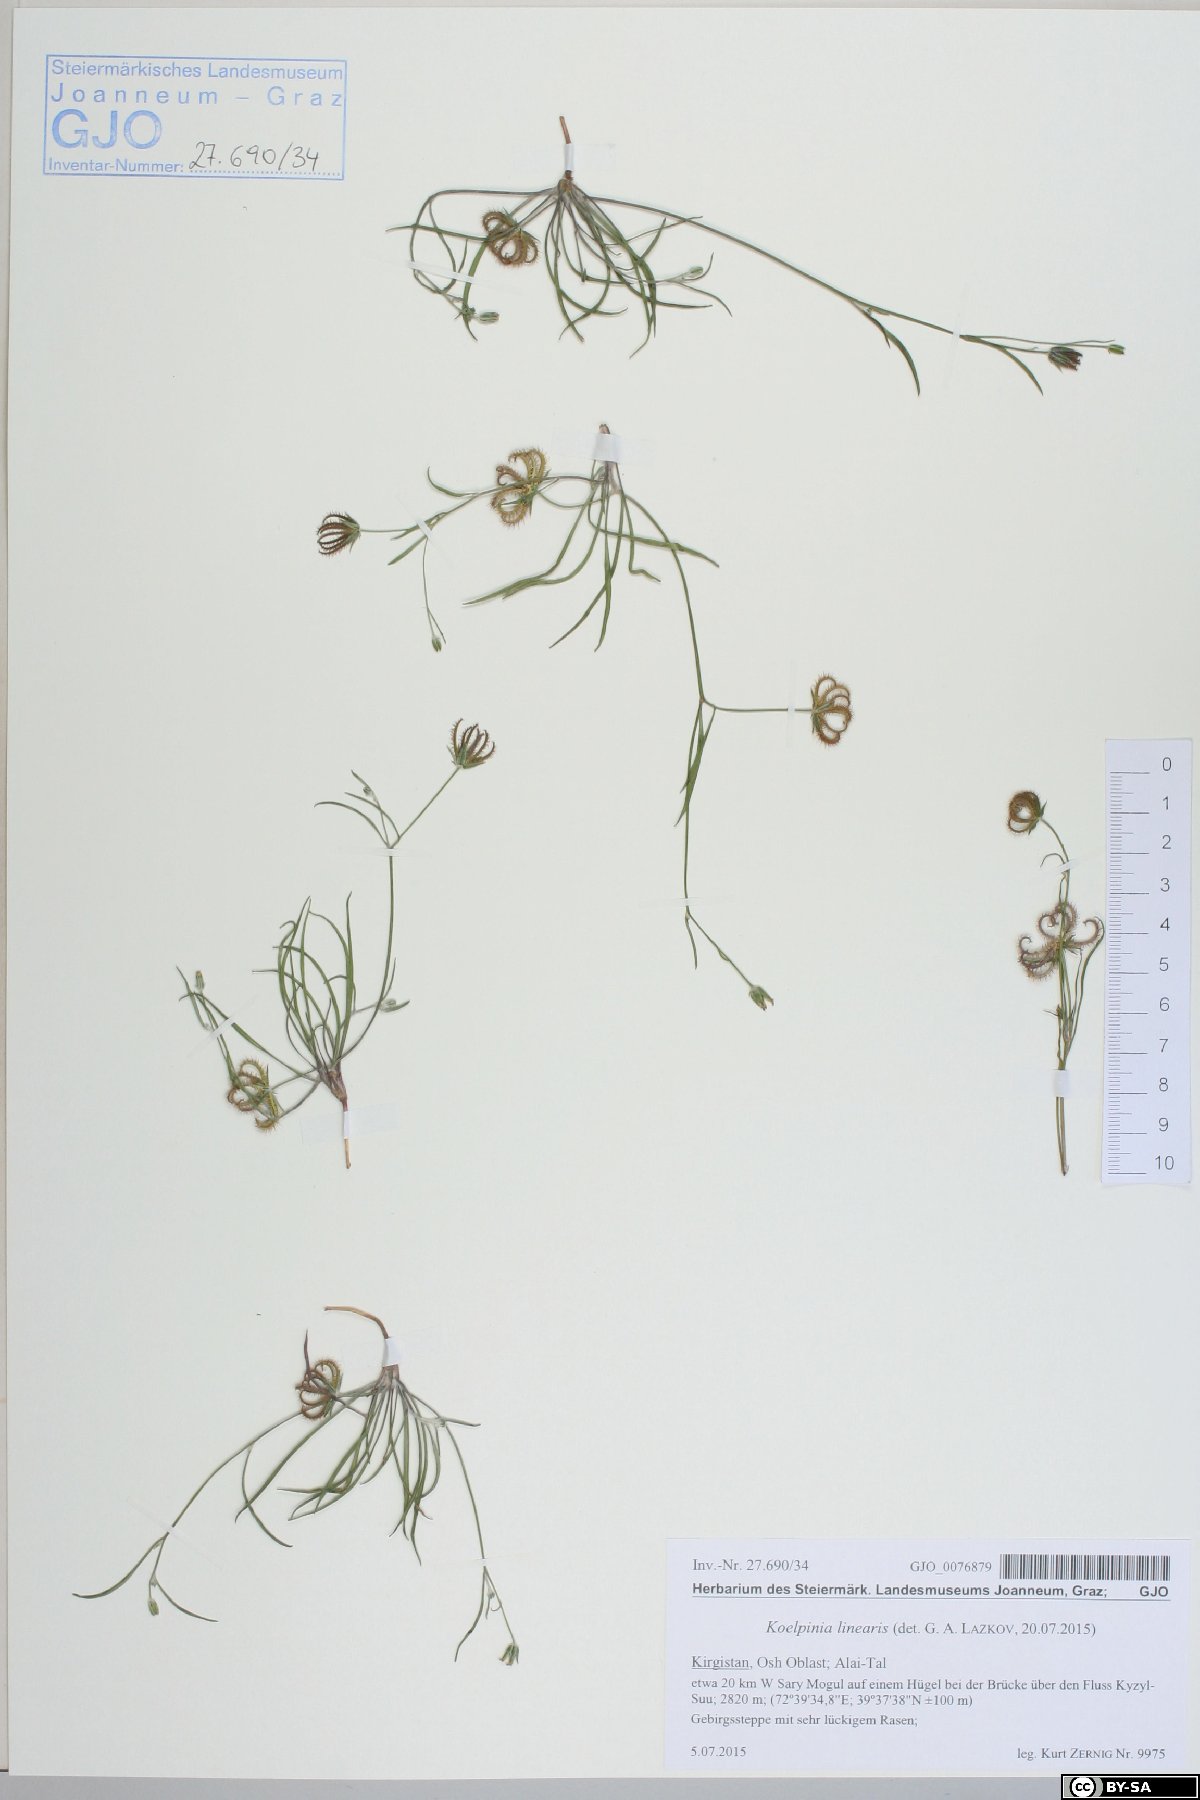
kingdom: Plantae
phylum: Tracheophyta
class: Magnoliopsida
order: Asterales
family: Asteraceae
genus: Koelpinia
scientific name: Koelpinia linearis
